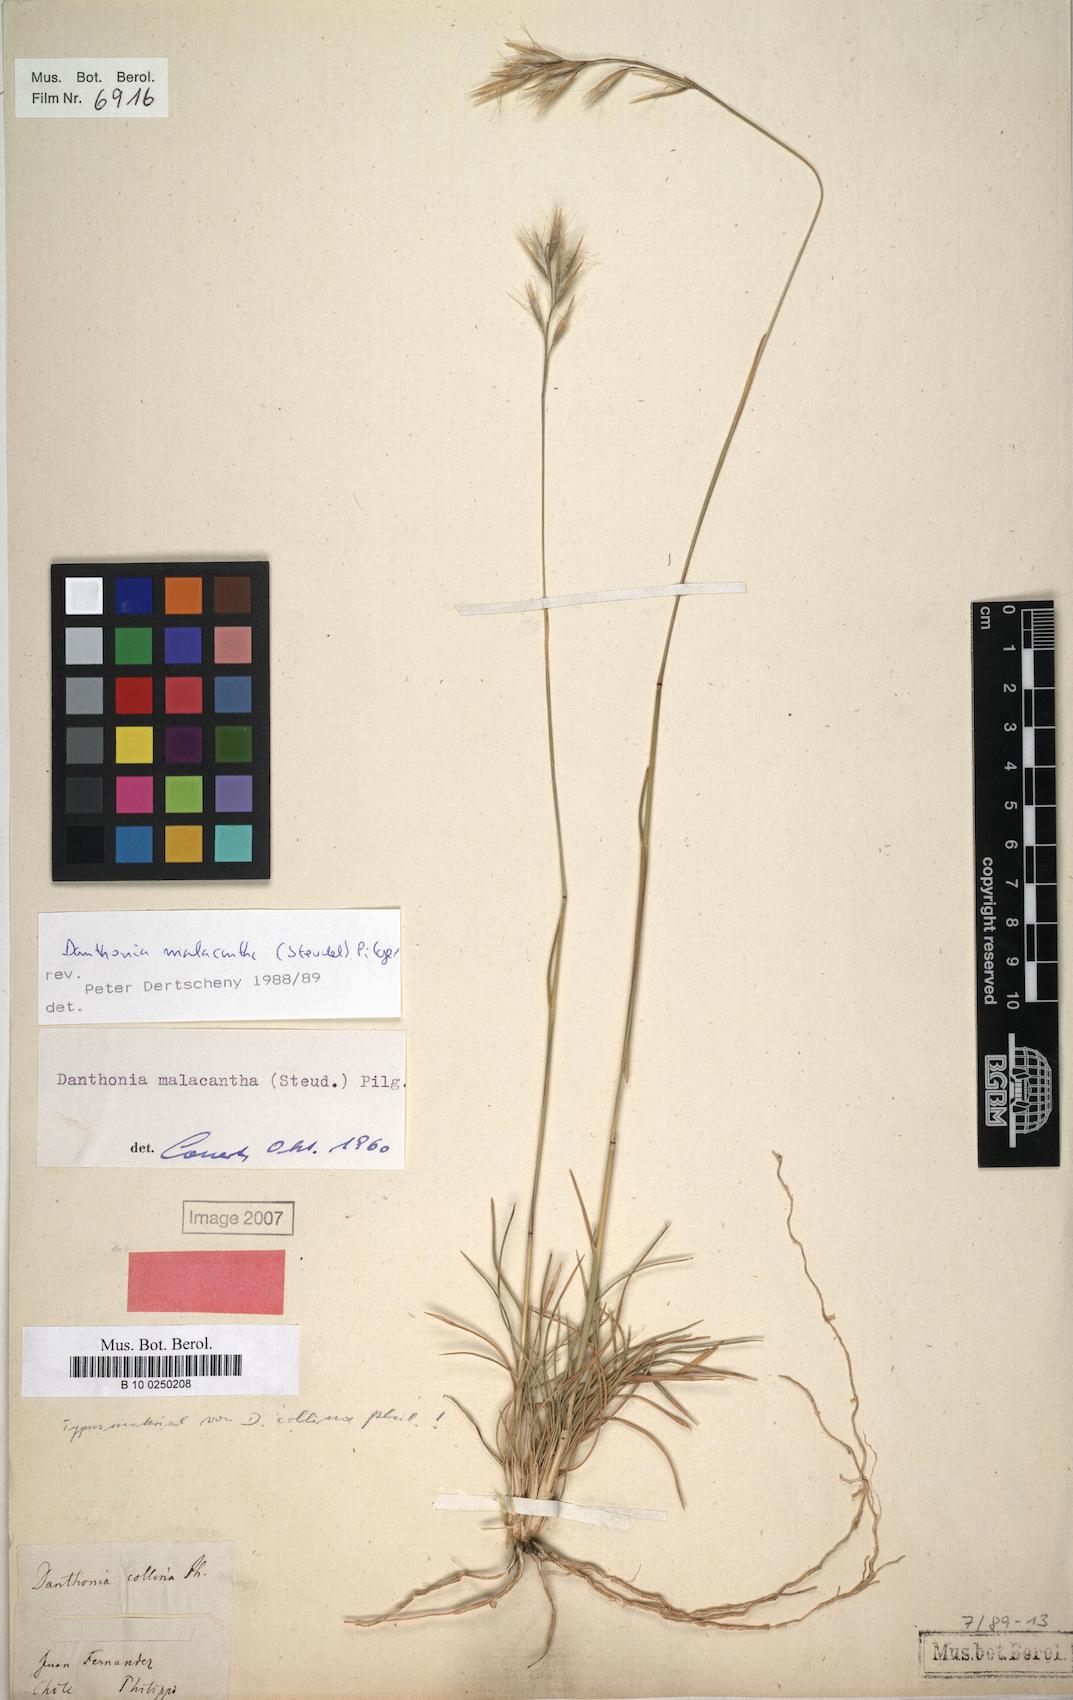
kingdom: Plantae
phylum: Tracheophyta
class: Liliopsida
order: Poales
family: Poaceae
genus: Danthonia
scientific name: Danthonia malacantha
